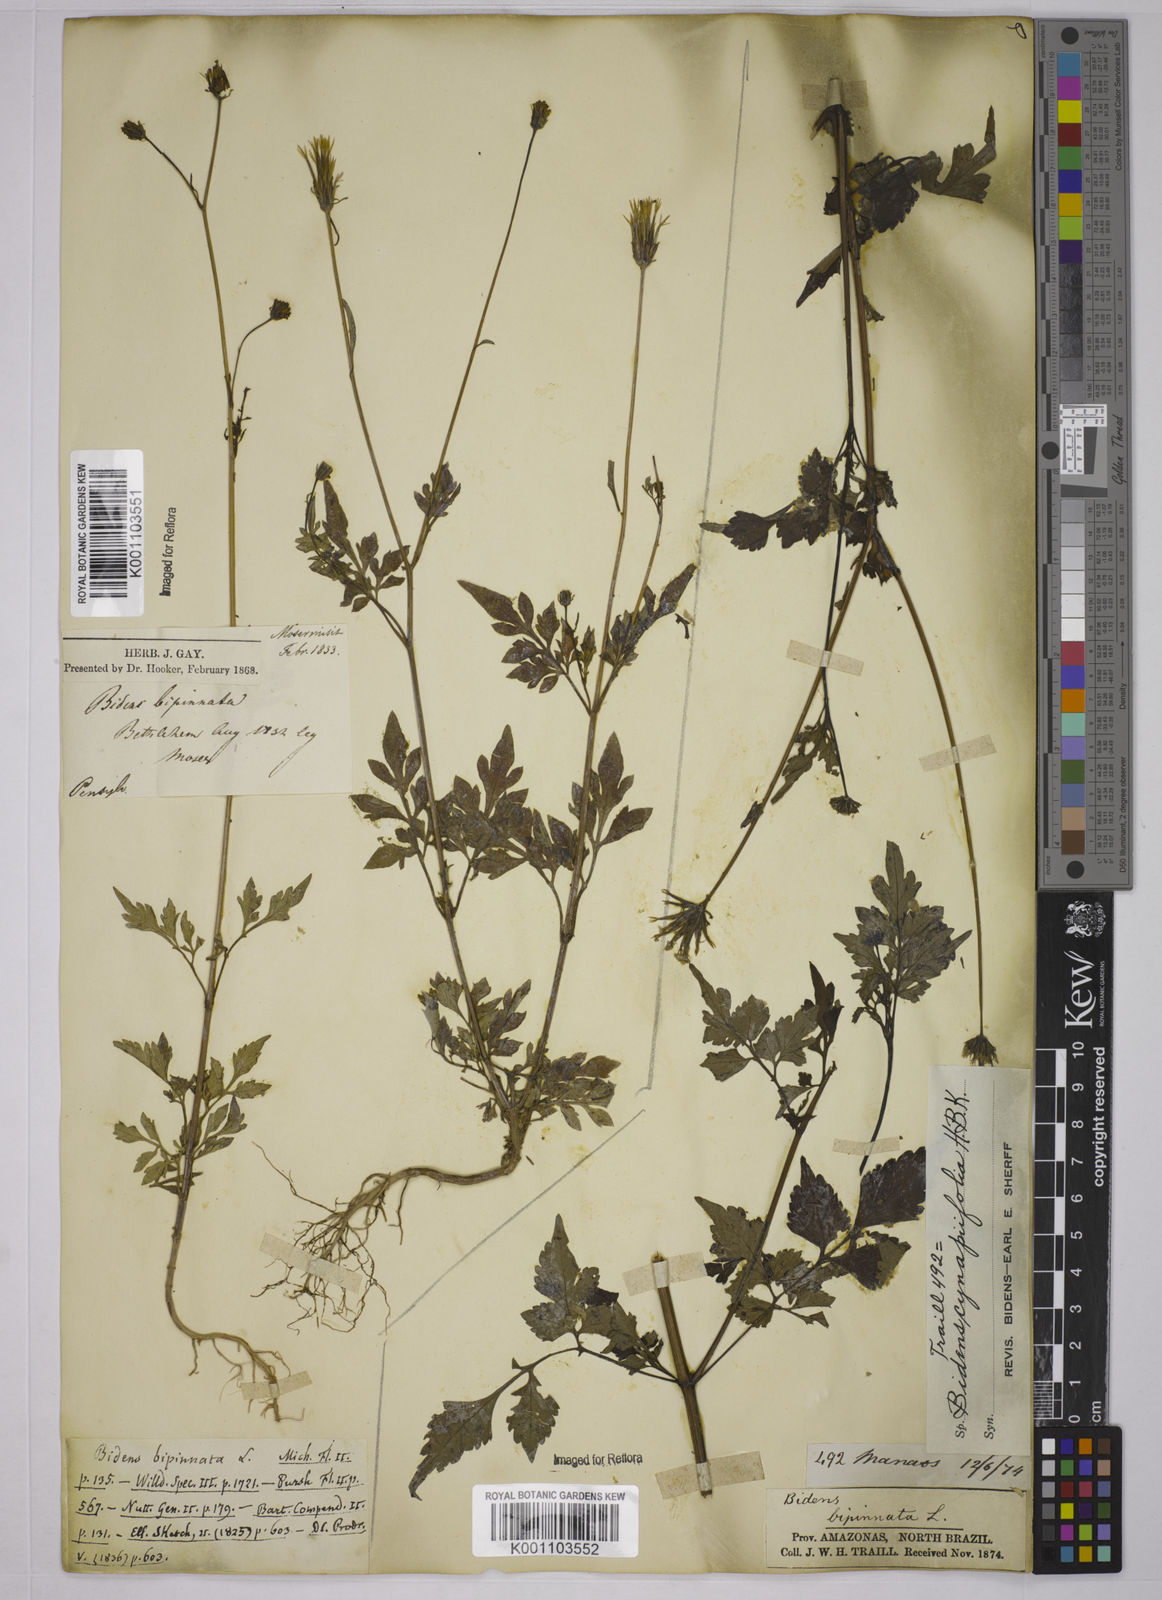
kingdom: Plantae
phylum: Tracheophyta
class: Magnoliopsida
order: Asterales
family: Asteraceae
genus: Bidens
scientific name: Bidens cynapiifolia
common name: Beggar's tick
